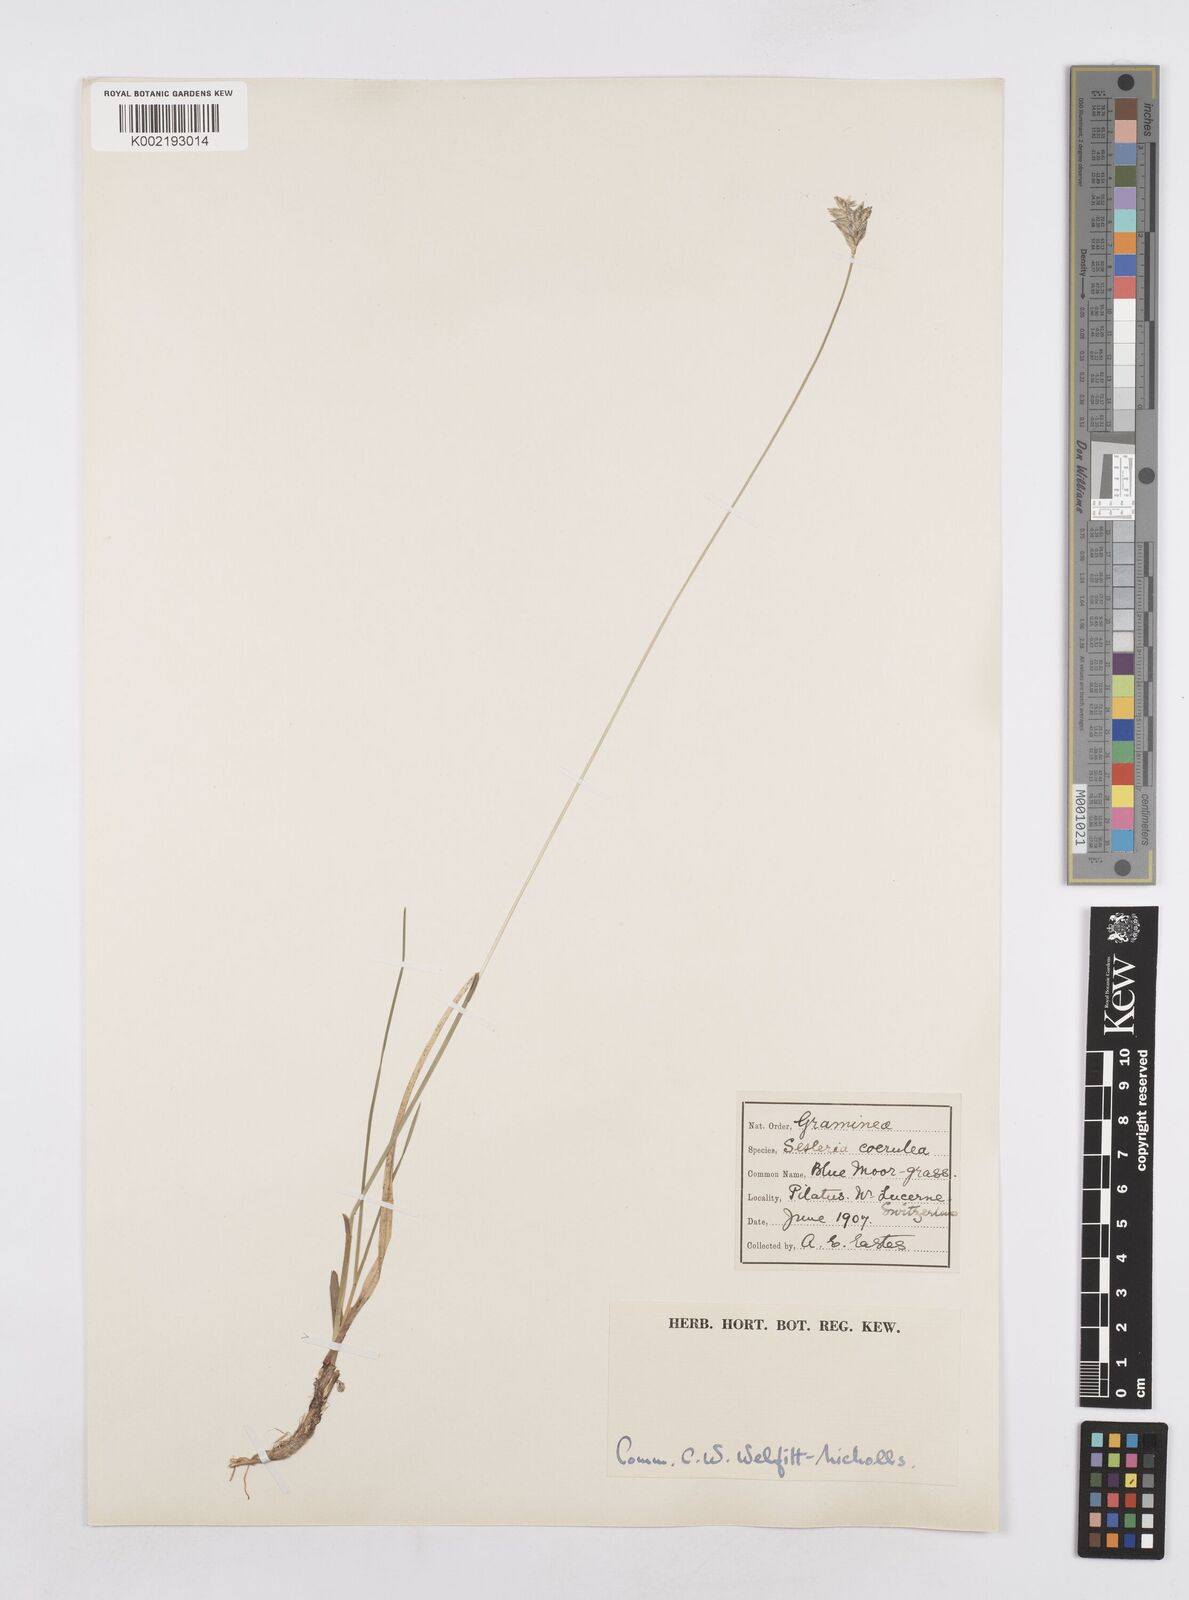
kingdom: Plantae
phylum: Tracheophyta
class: Liliopsida
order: Poales
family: Poaceae
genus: Sesleria
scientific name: Sesleria caerulea
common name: Blue moor-grass
